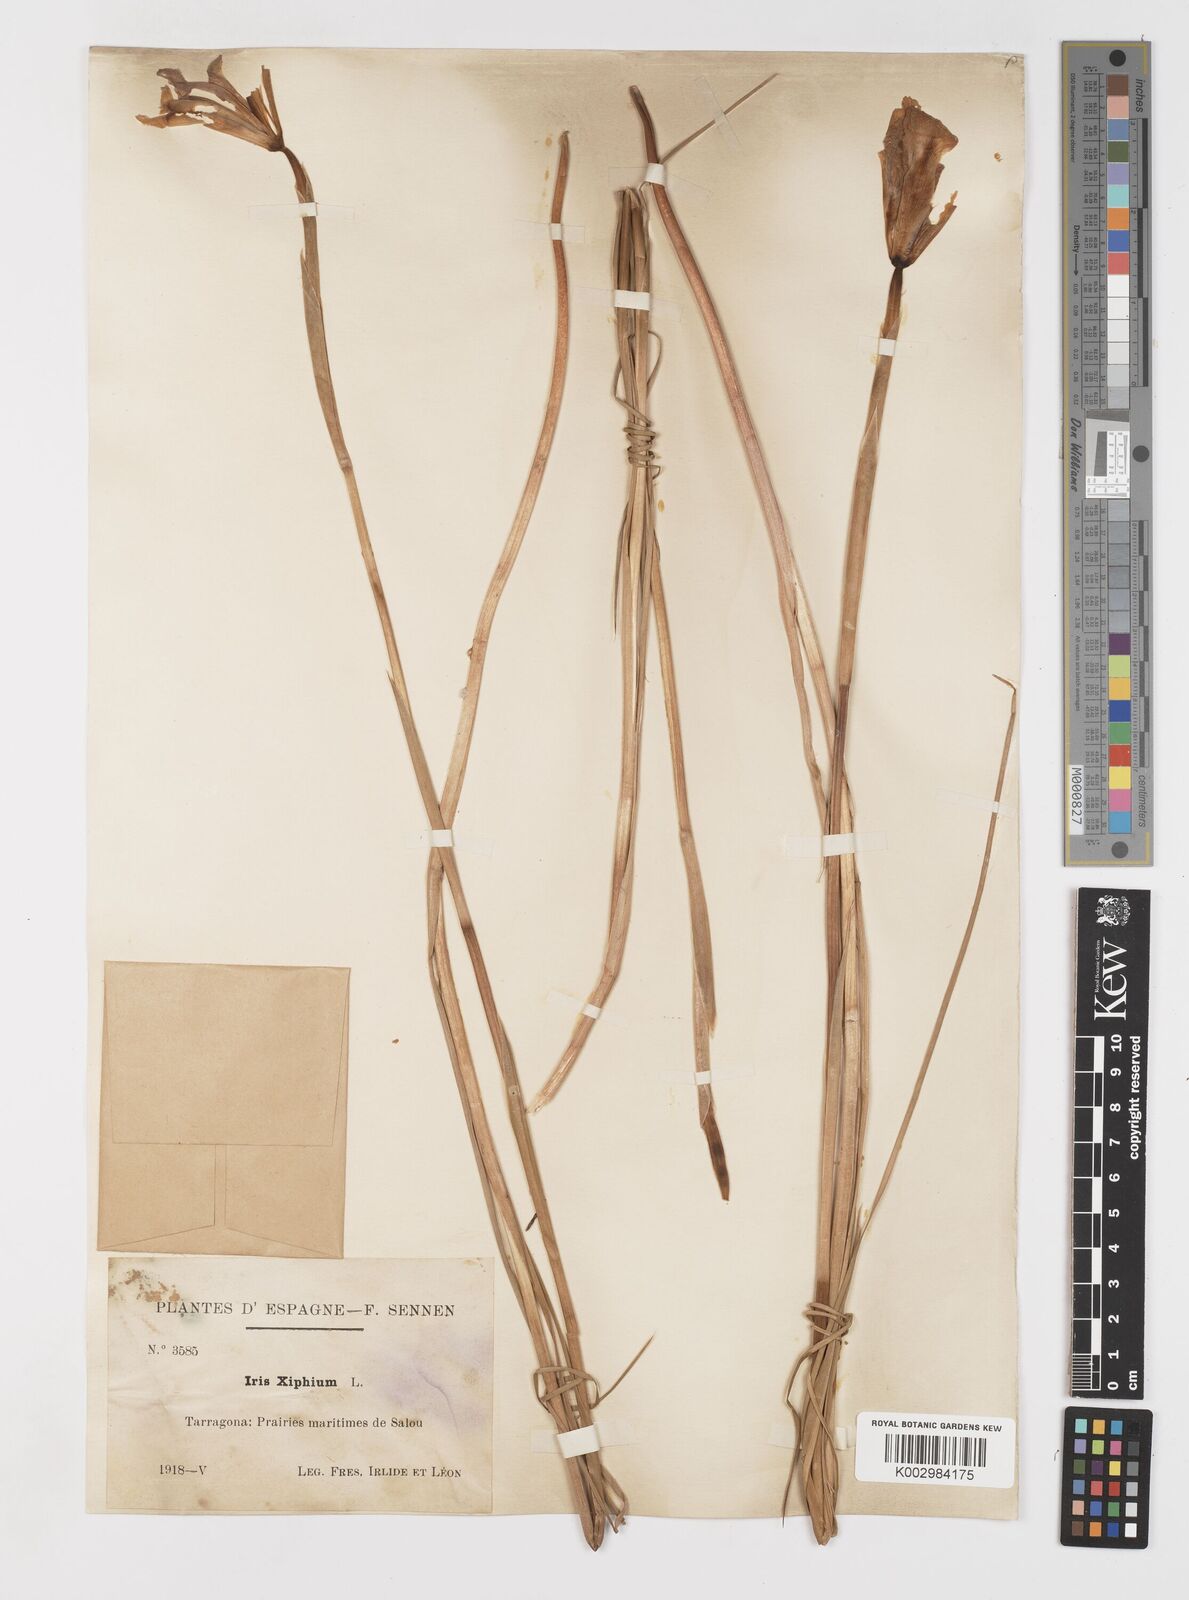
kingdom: Plantae
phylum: Tracheophyta
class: Liliopsida
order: Asparagales
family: Iridaceae
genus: Iris
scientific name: Iris xiphium
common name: Spanish iris
